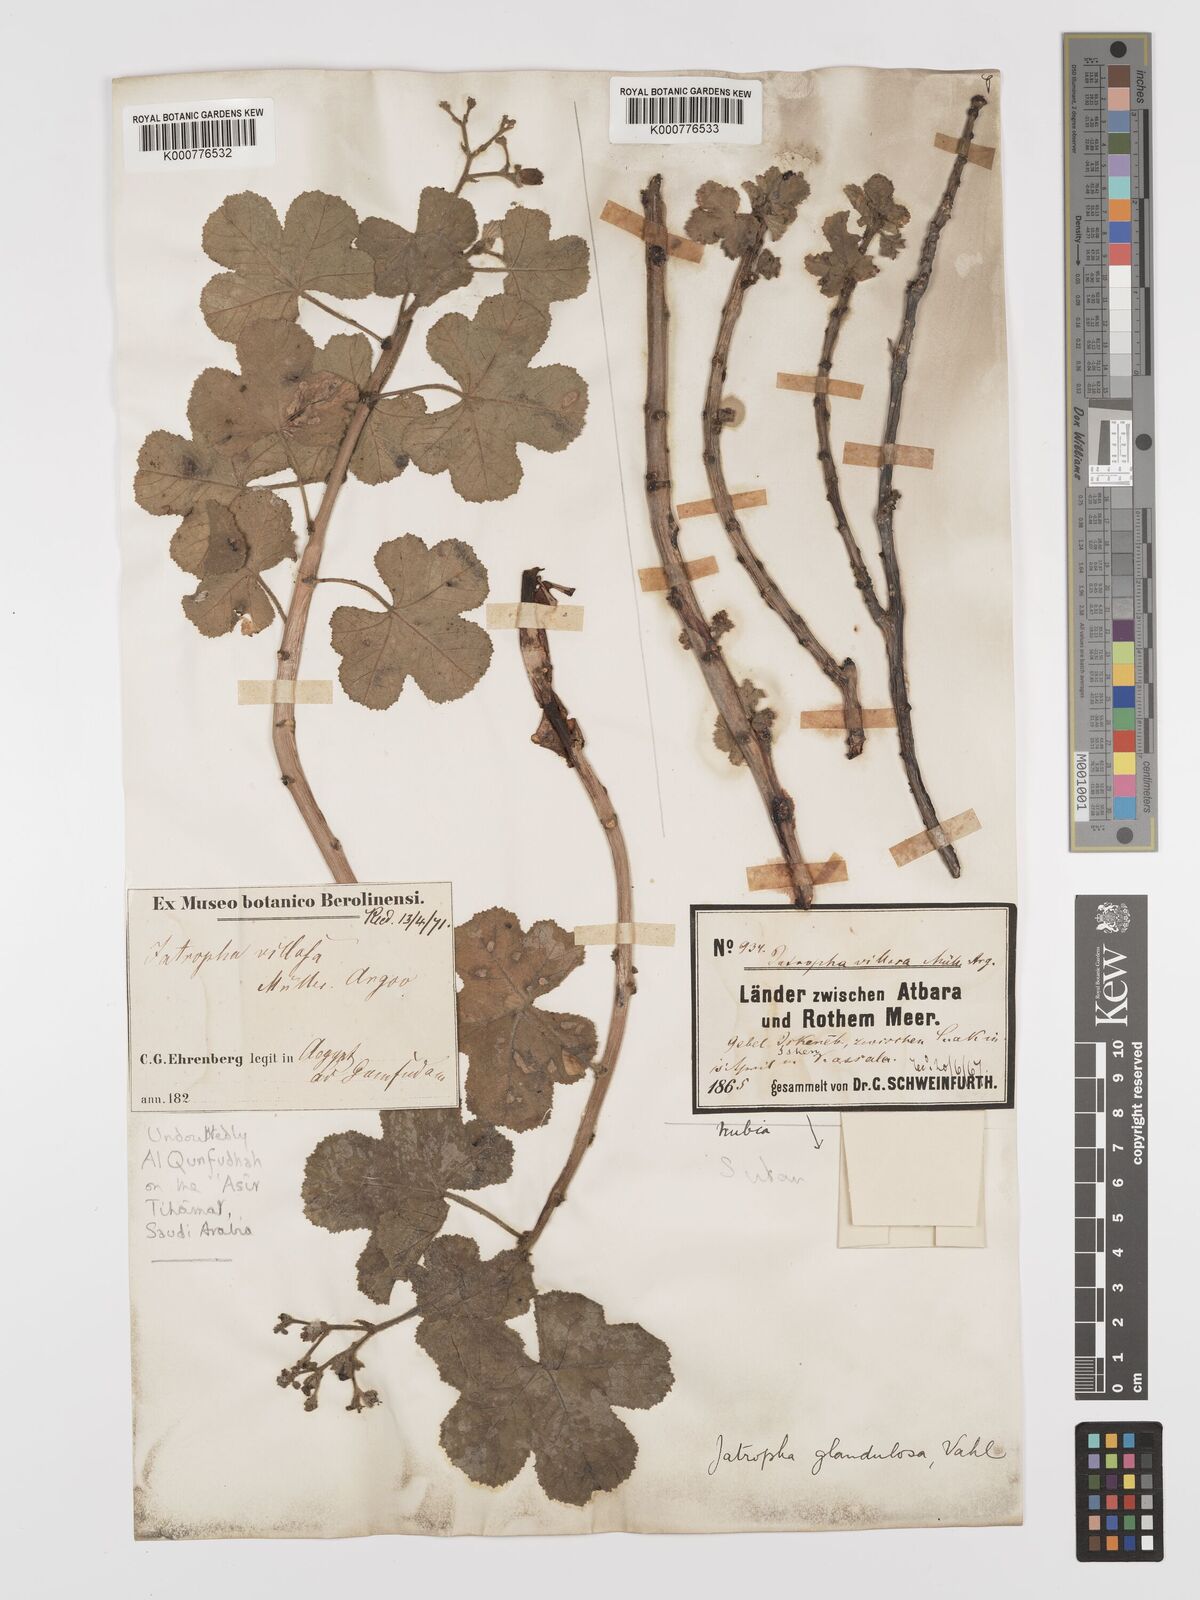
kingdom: Plantae
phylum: Tracheophyta
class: Magnoliopsida
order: Malpighiales
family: Euphorbiaceae
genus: Jatropha
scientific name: Jatropha pelargoniifolia
